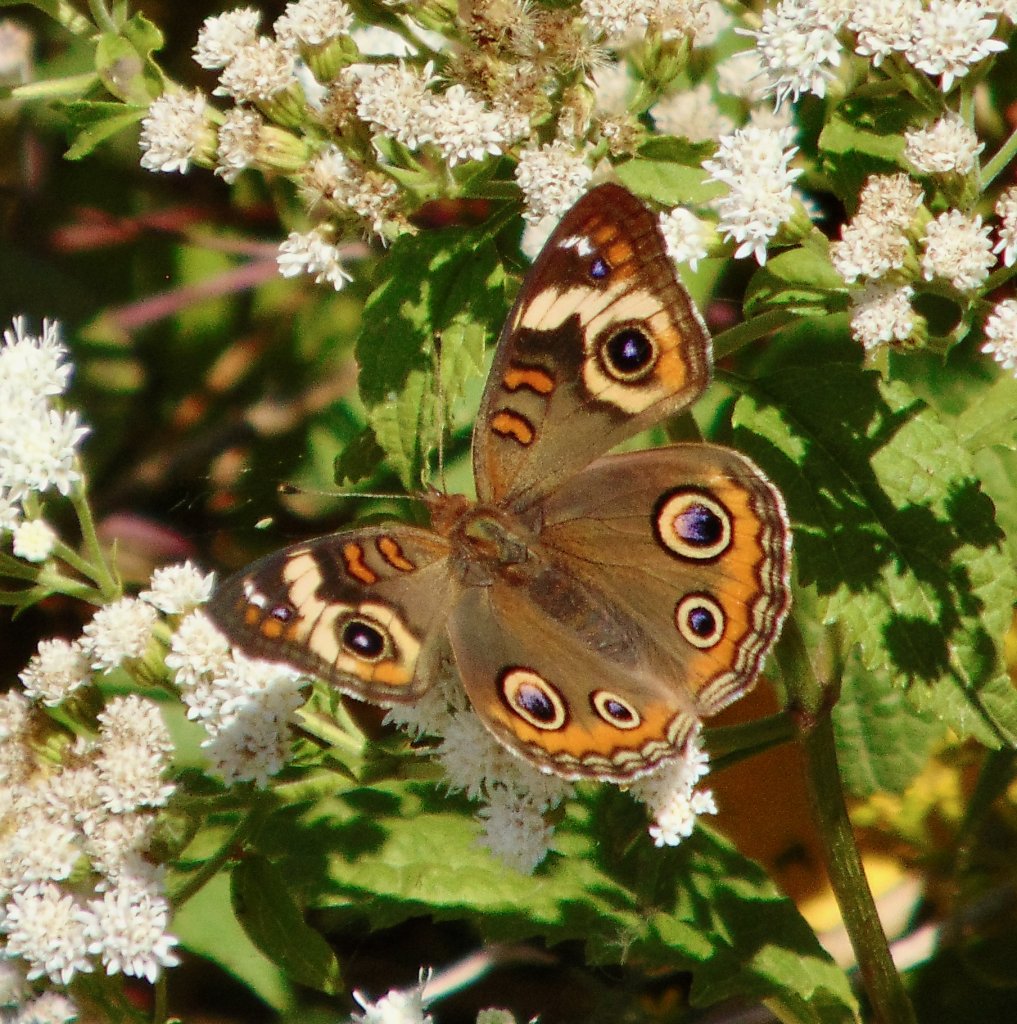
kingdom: Animalia
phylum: Arthropoda
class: Insecta
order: Lepidoptera
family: Nymphalidae
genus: Junonia
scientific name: Junonia coenia
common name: Common Buckeye
